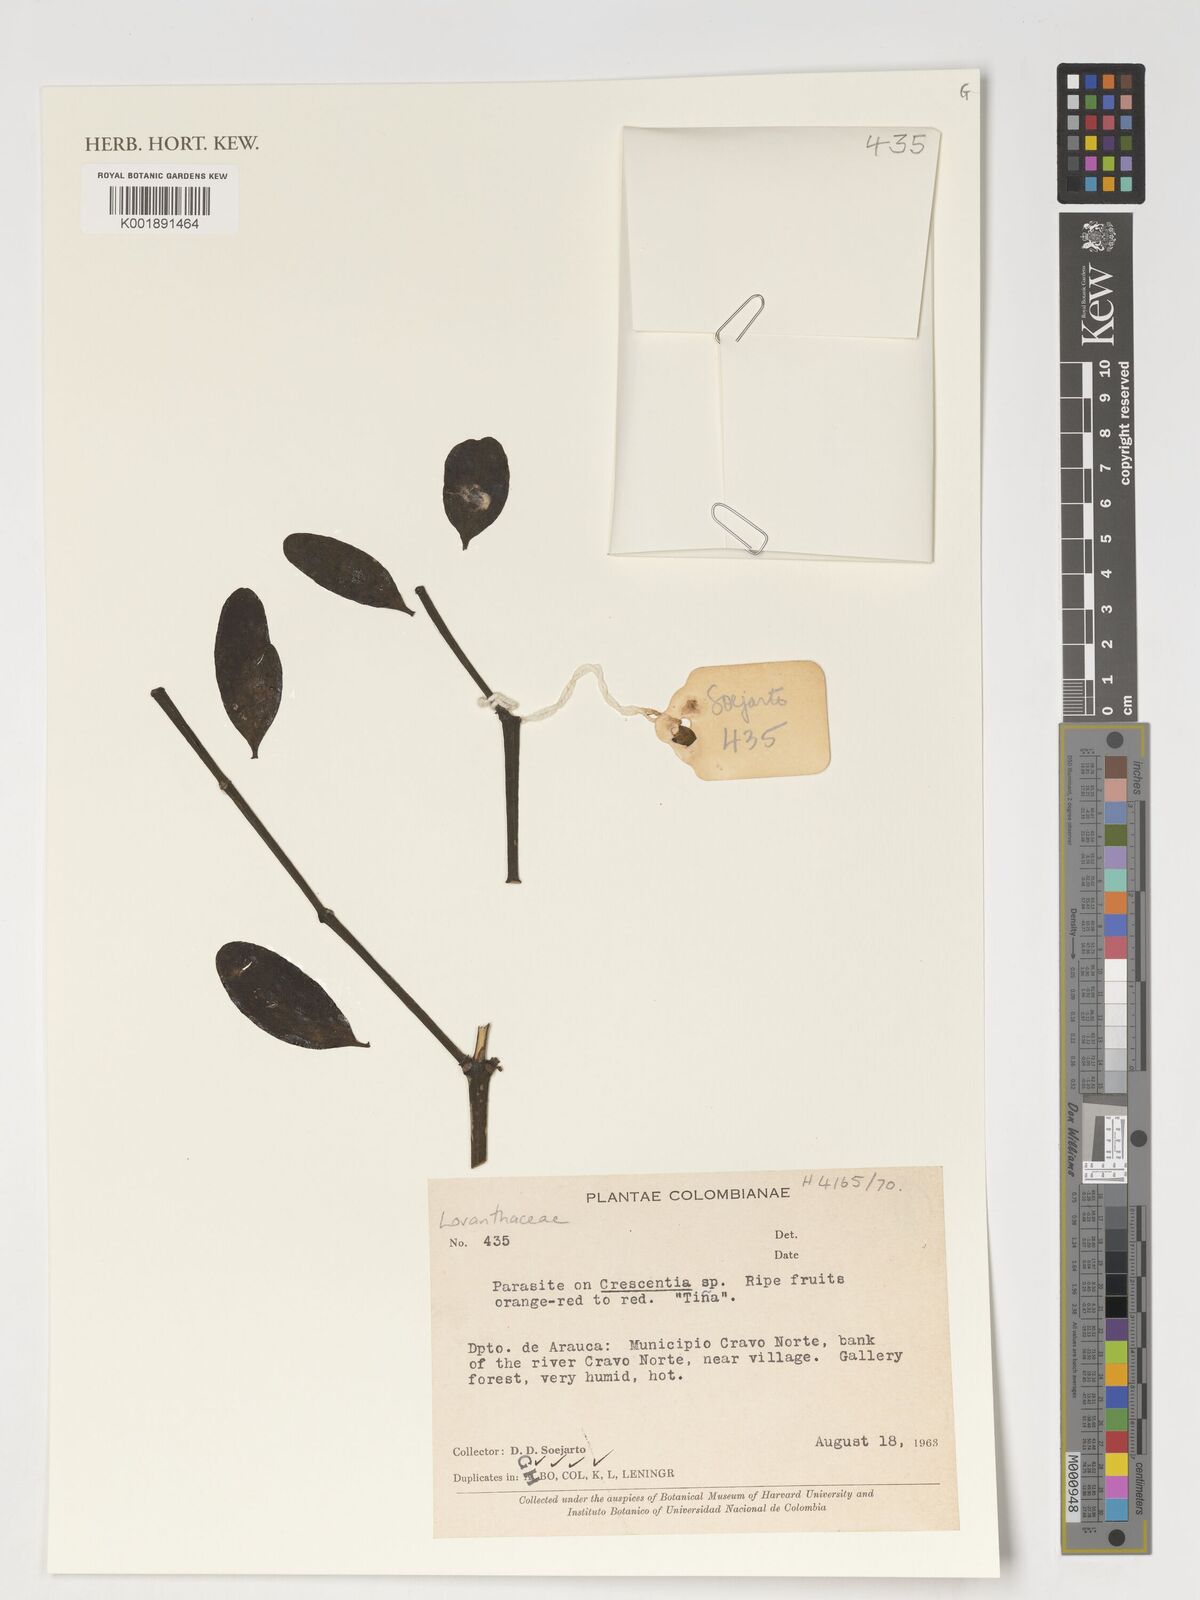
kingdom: Plantae
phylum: Tracheophyta
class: Magnoliopsida
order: Santalales
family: Loranthaceae
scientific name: Loranthaceae
